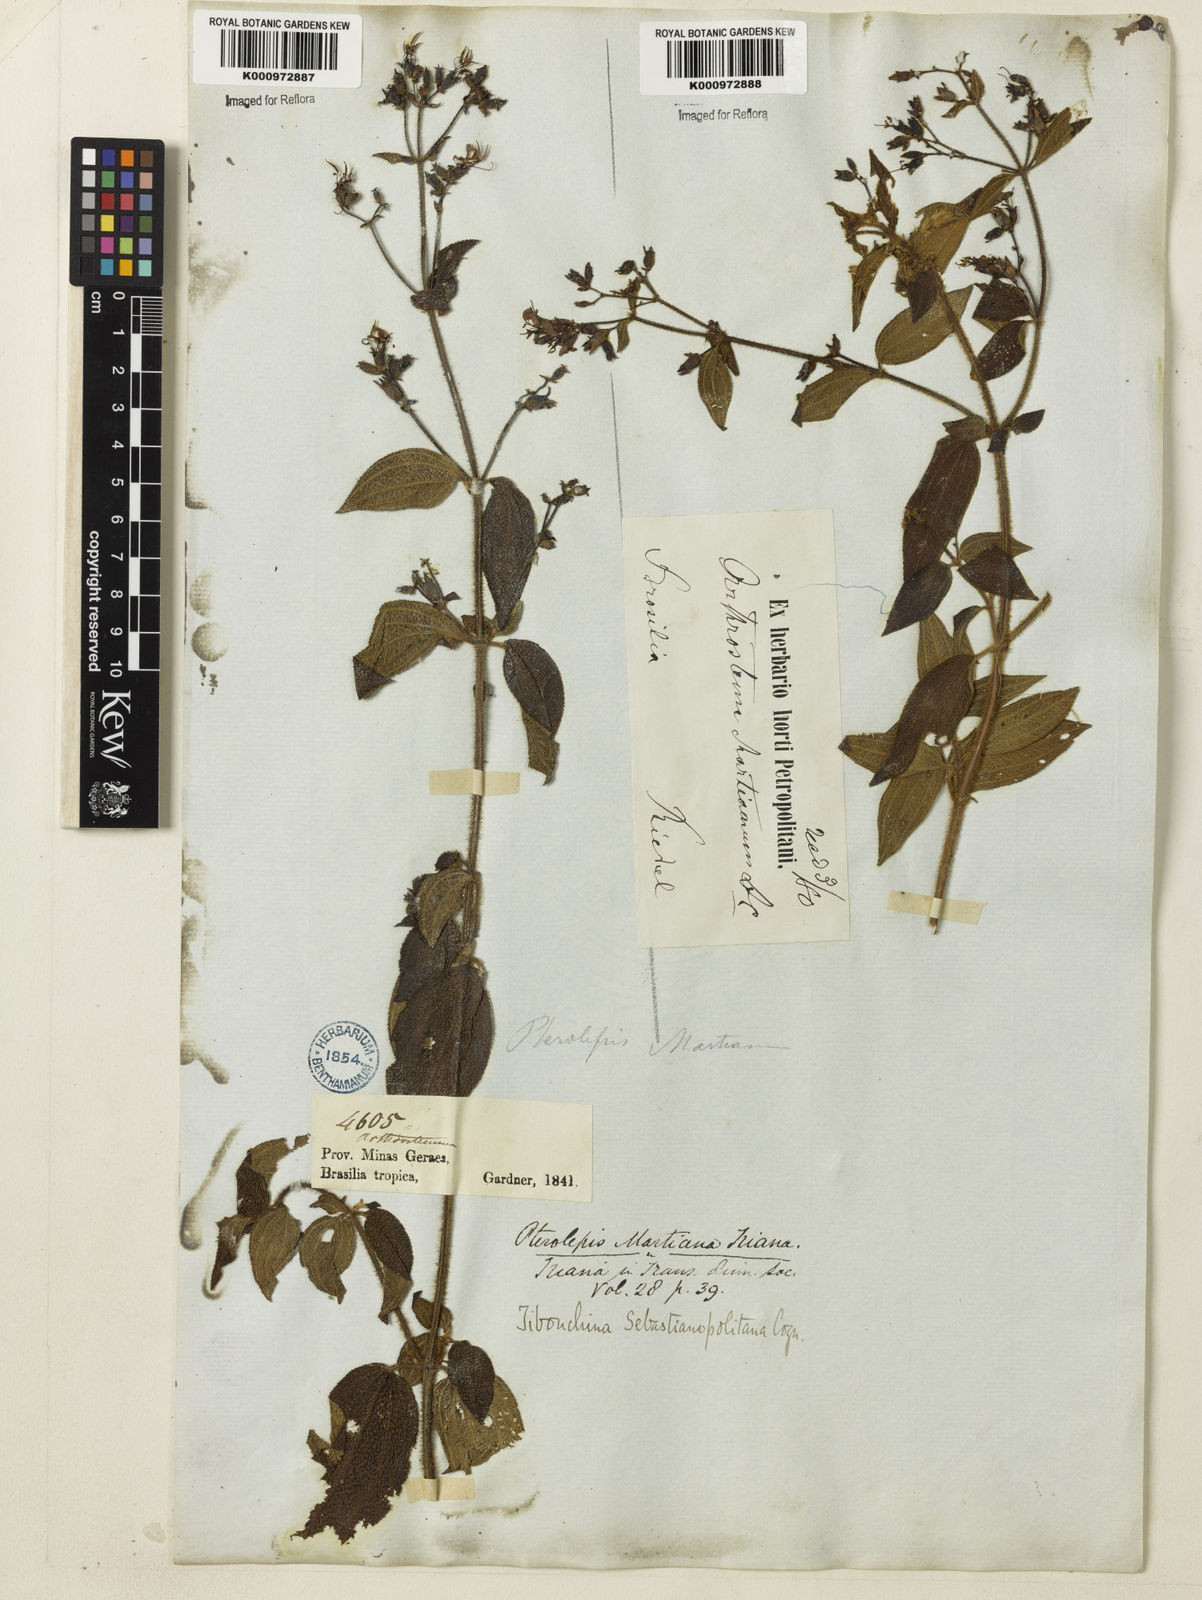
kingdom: Plantae
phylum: Tracheophyta
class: Magnoliopsida
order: Myrtales
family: Melastomataceae
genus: Chaetogastra
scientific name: Chaetogastra sebastianopolitana
